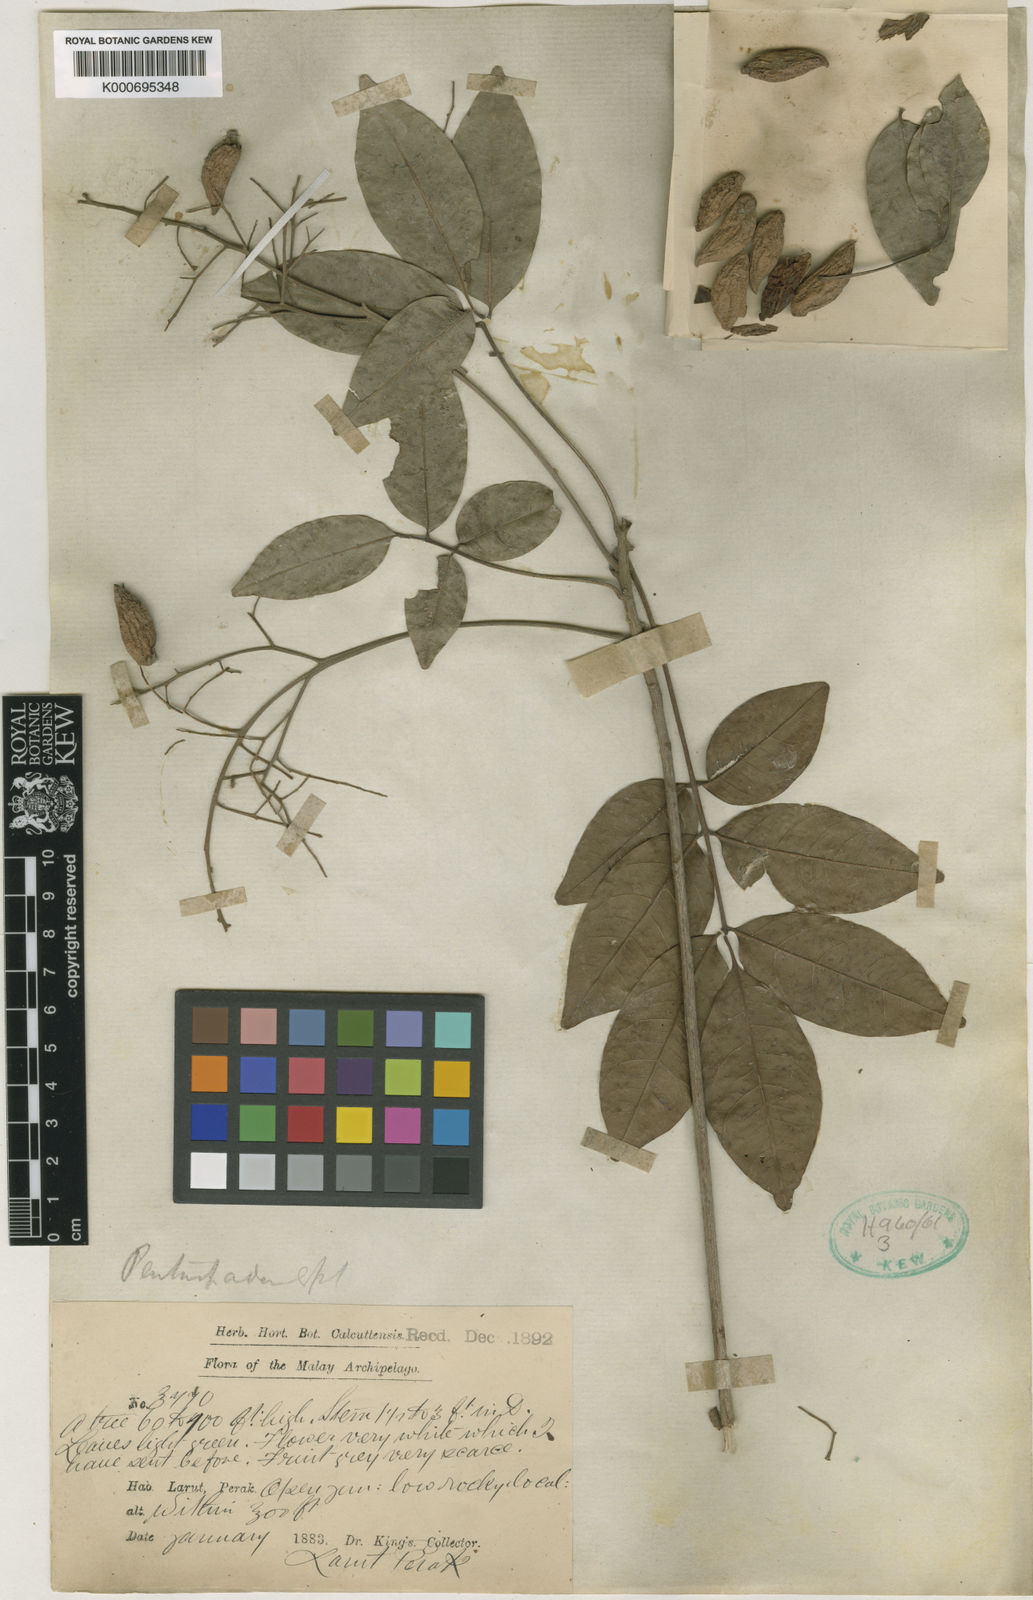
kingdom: Plantae
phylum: Tracheophyta
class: Magnoliopsida
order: Sapindales
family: Anacardiaceae
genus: Pentaspadon
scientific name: Pentaspadon motleyi
